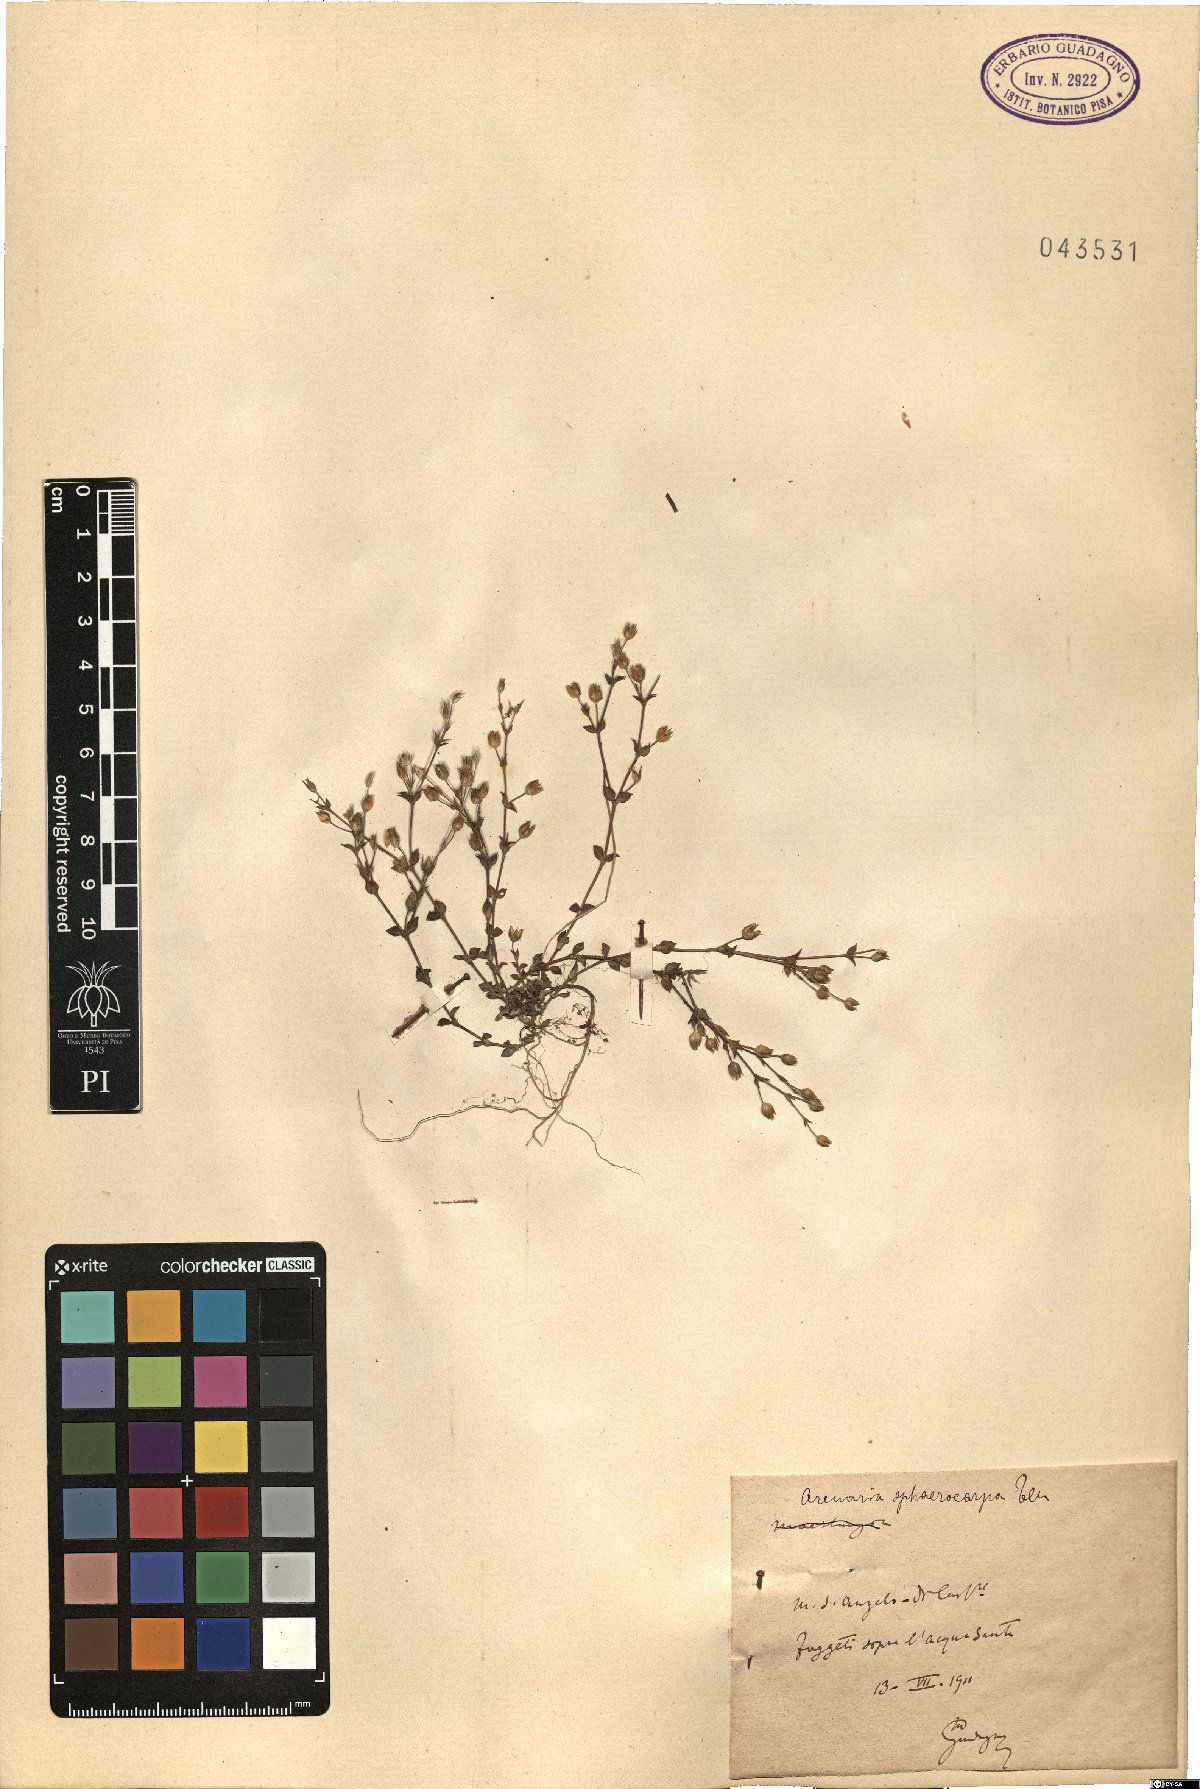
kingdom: Plantae
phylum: Tracheophyta
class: Magnoliopsida
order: Caryophyllales
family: Caryophyllaceae
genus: Arenaria
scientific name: Arenaria serpyllifolia
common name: Thyme-leaved sandwort
